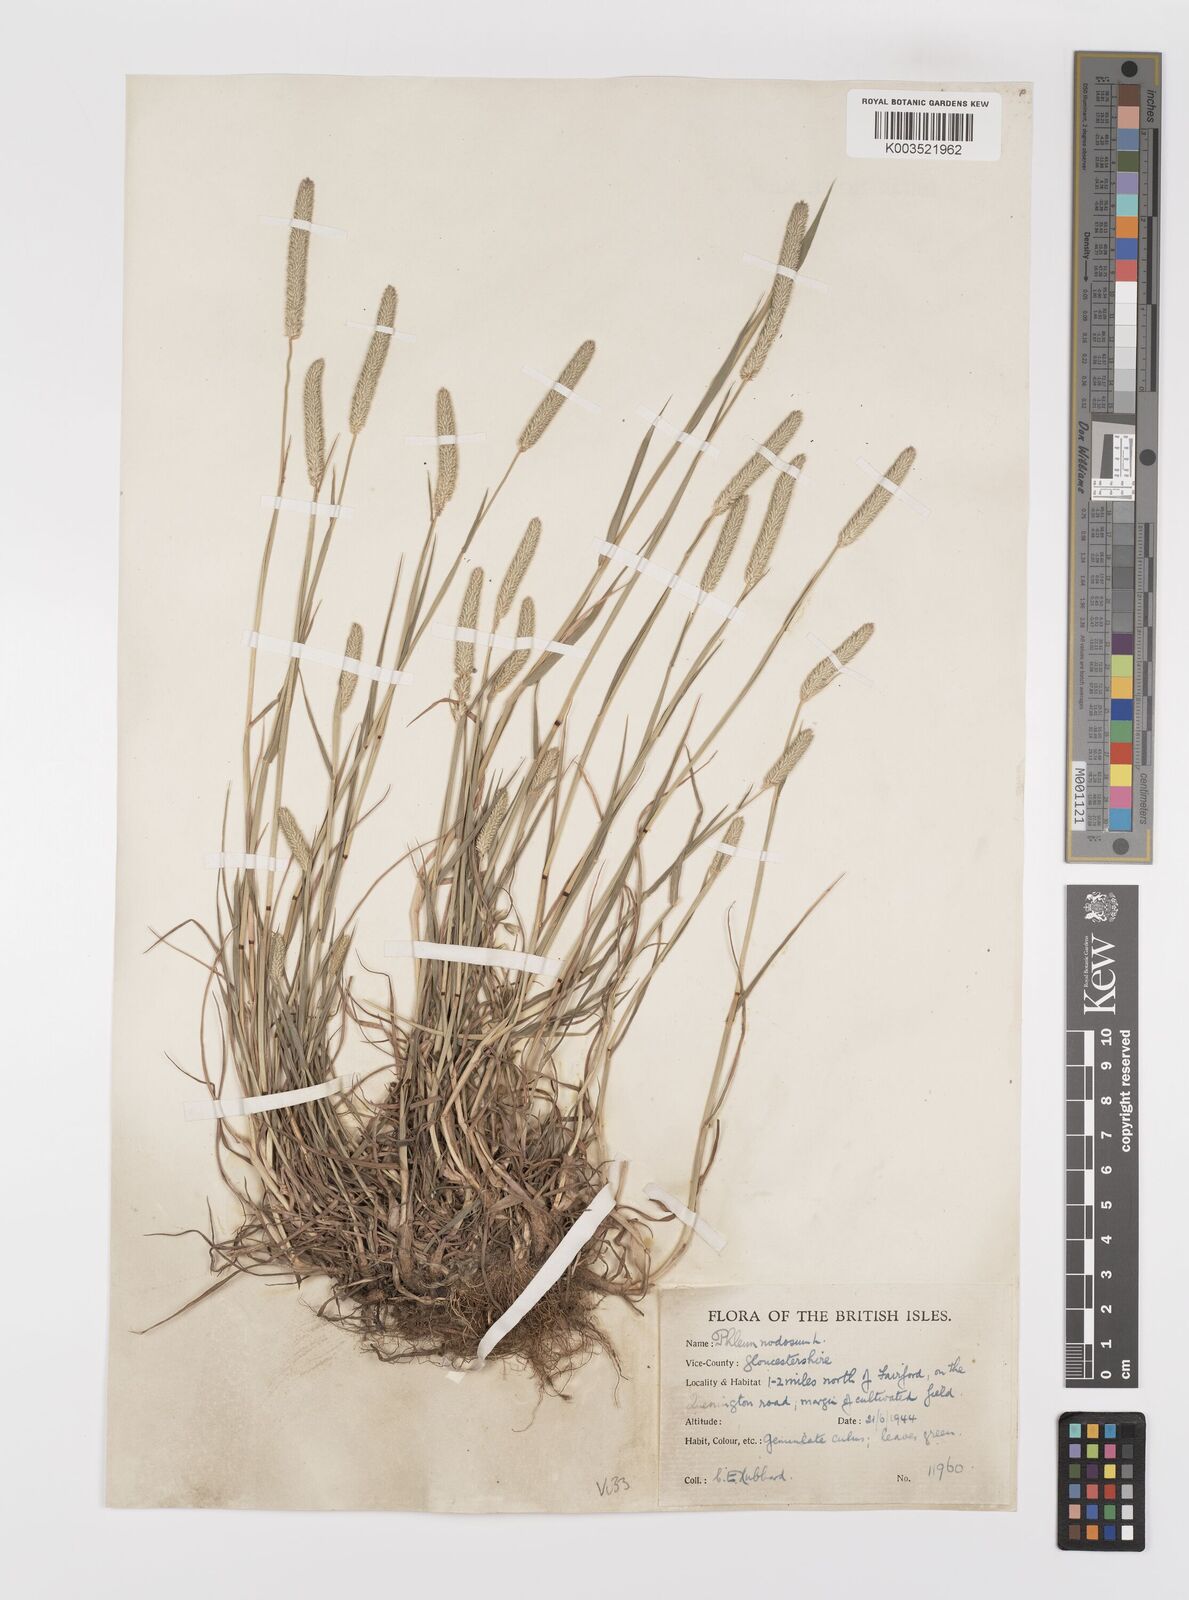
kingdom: Plantae
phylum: Tracheophyta
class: Liliopsida
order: Poales
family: Poaceae
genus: Phleum
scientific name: Phleum bertolonii
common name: Smaller cat's-tail
